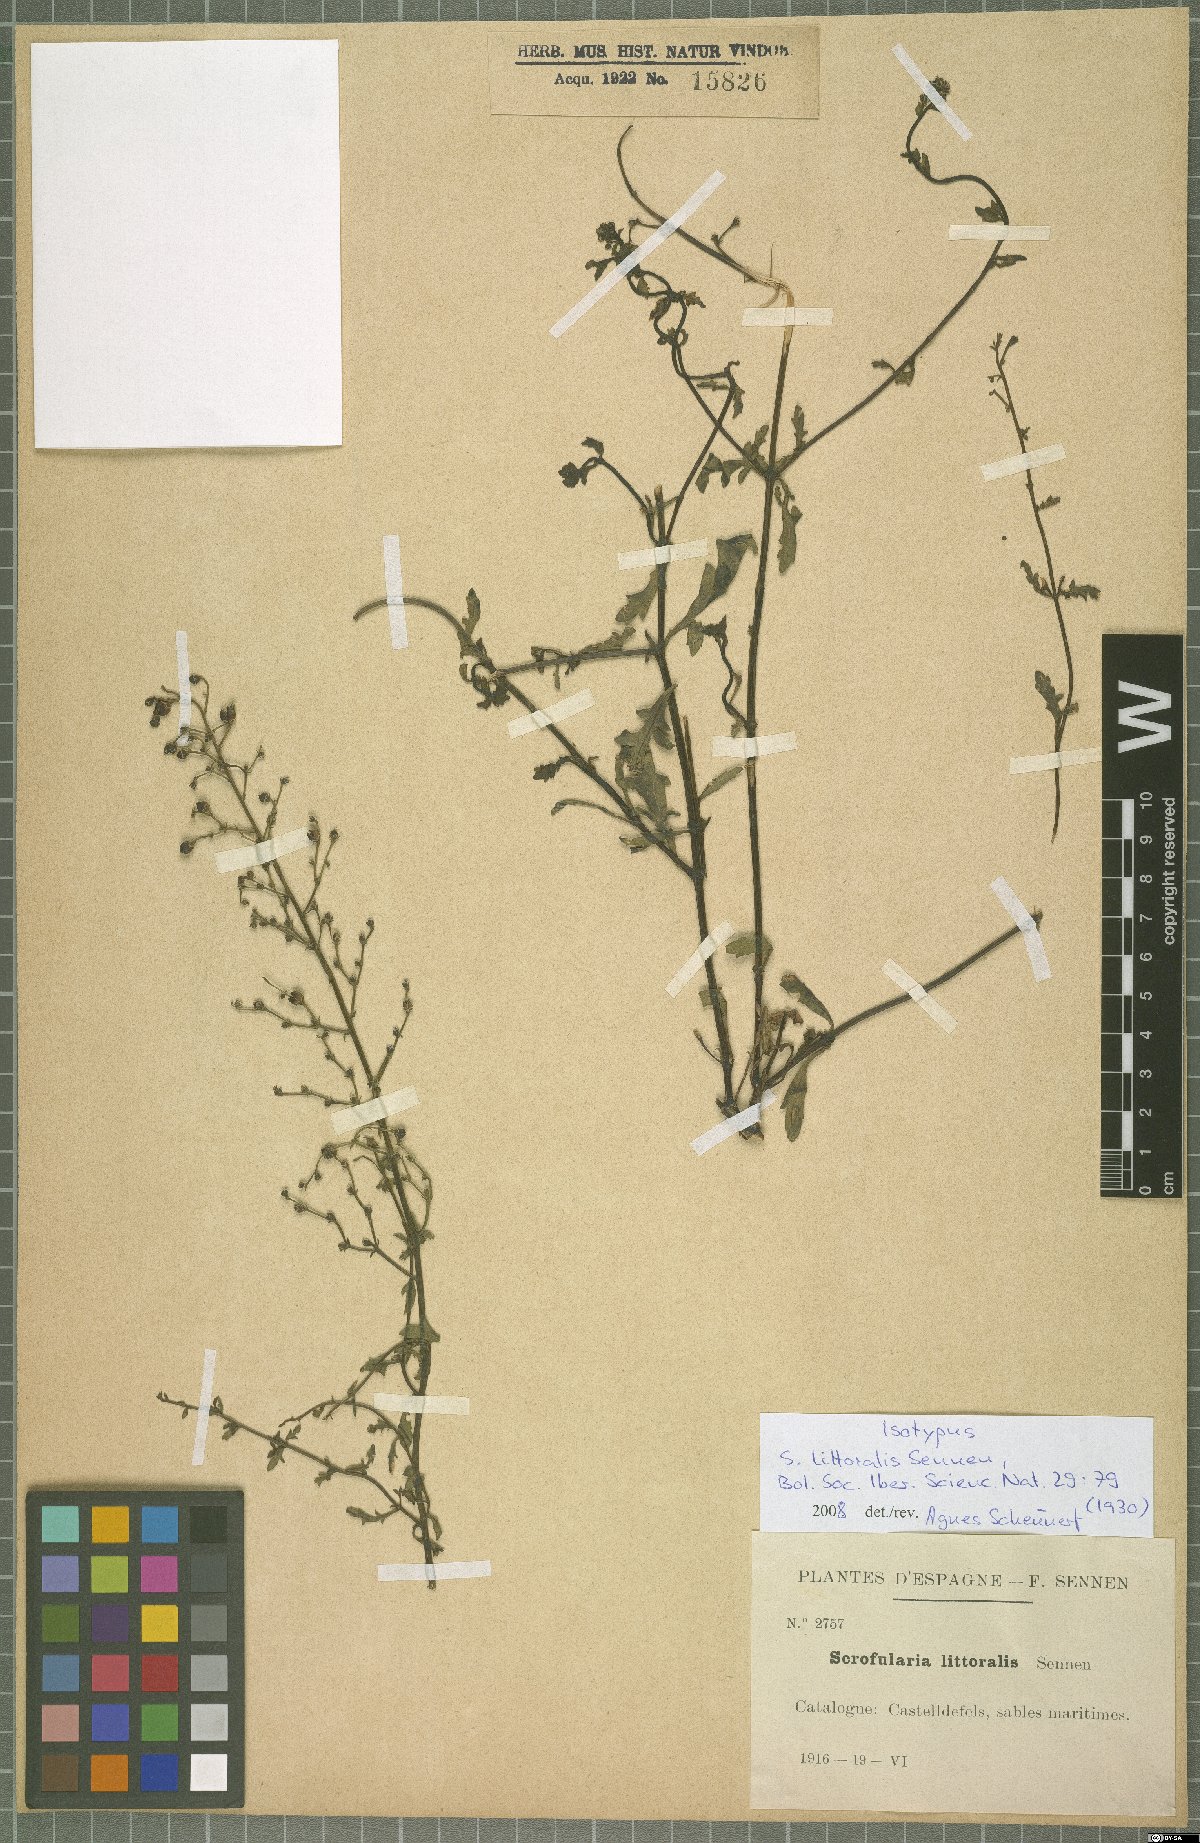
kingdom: Plantae
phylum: Tracheophyta
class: Magnoliopsida
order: Lamiales
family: Scrophulariaceae
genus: Scrophularia
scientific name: Scrophularia canina
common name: French figwort
